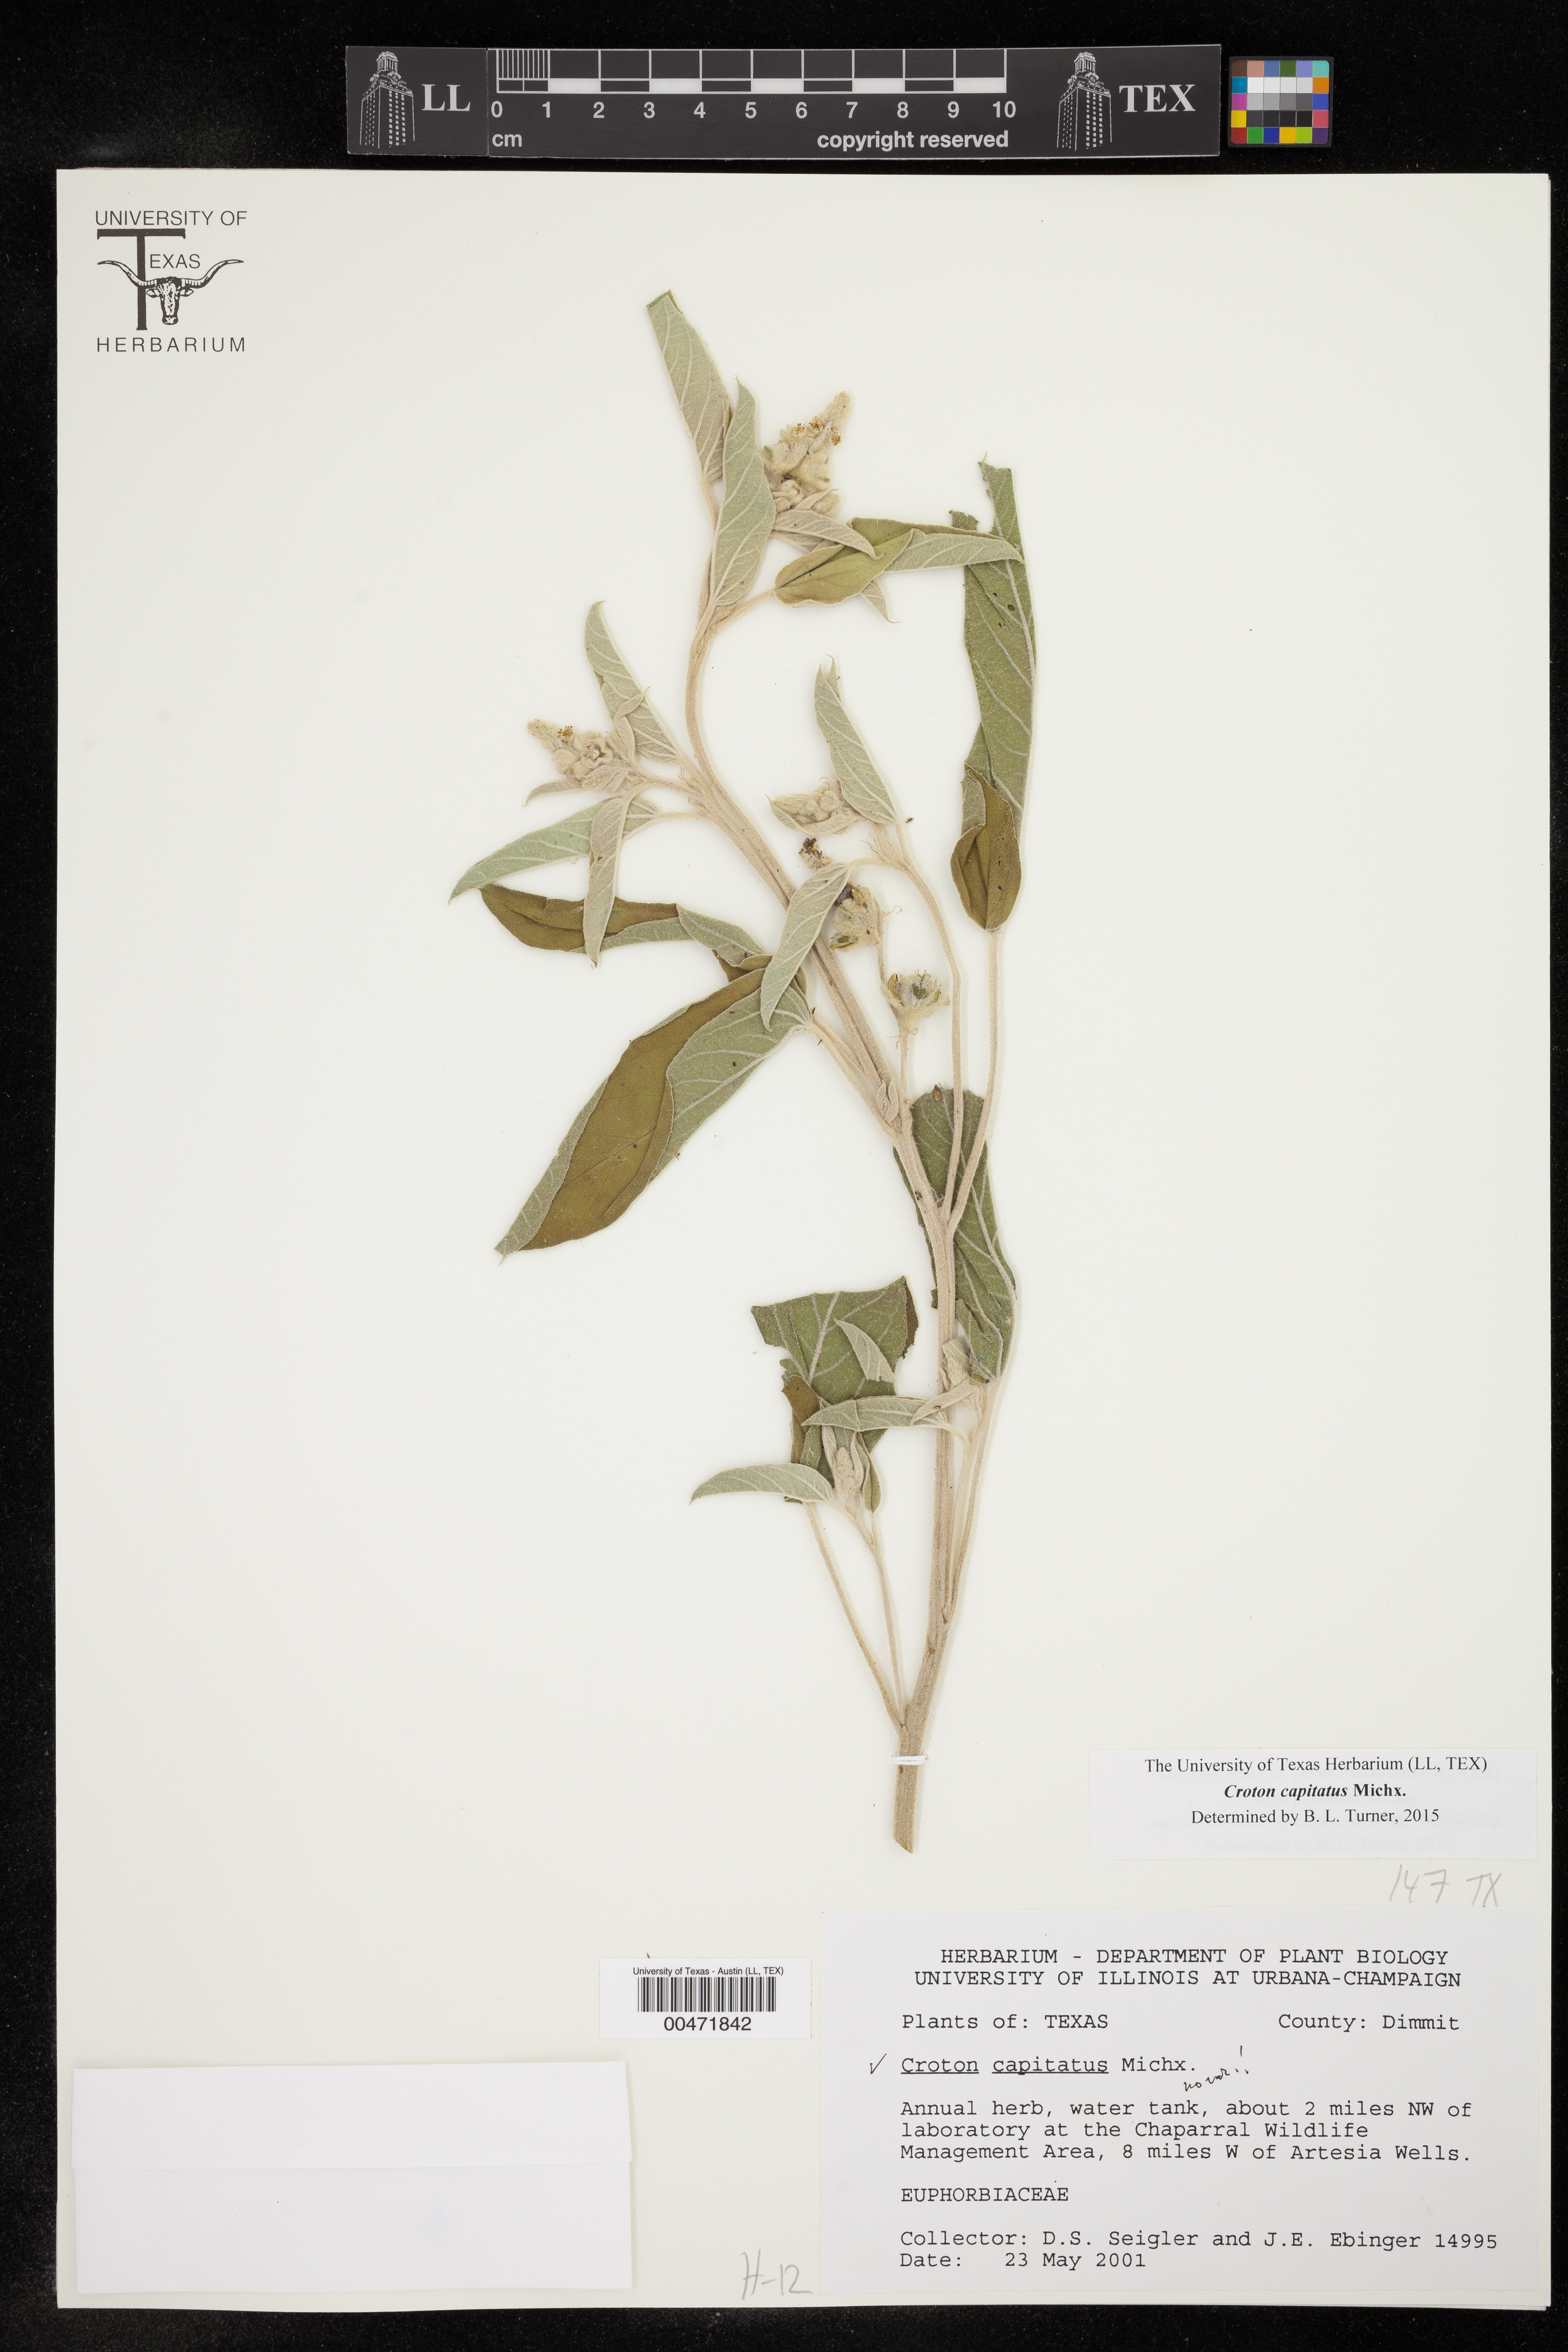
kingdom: Plantae
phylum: Tracheophyta
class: Magnoliopsida
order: Malpighiales
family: Euphorbiaceae
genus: Croton
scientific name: Croton capitatus
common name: Woolly croton
